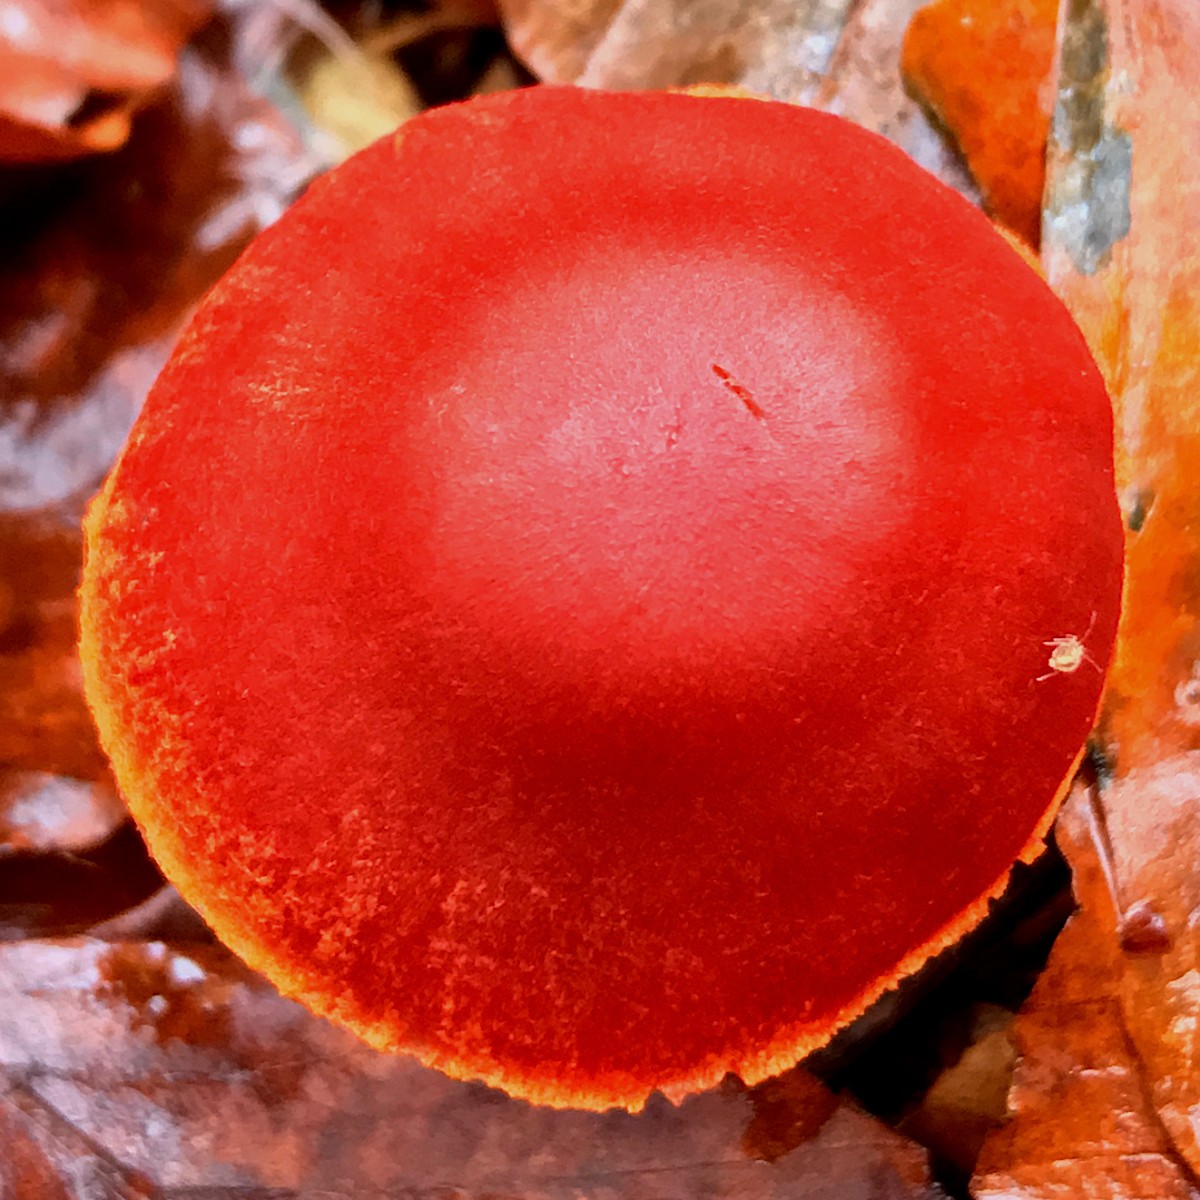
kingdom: Fungi
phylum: Basidiomycota
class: Agaricomycetes
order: Agaricales
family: Cortinariaceae
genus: Cortinarius
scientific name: Cortinarius cinnabarinus
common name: cinnober-slørhat
